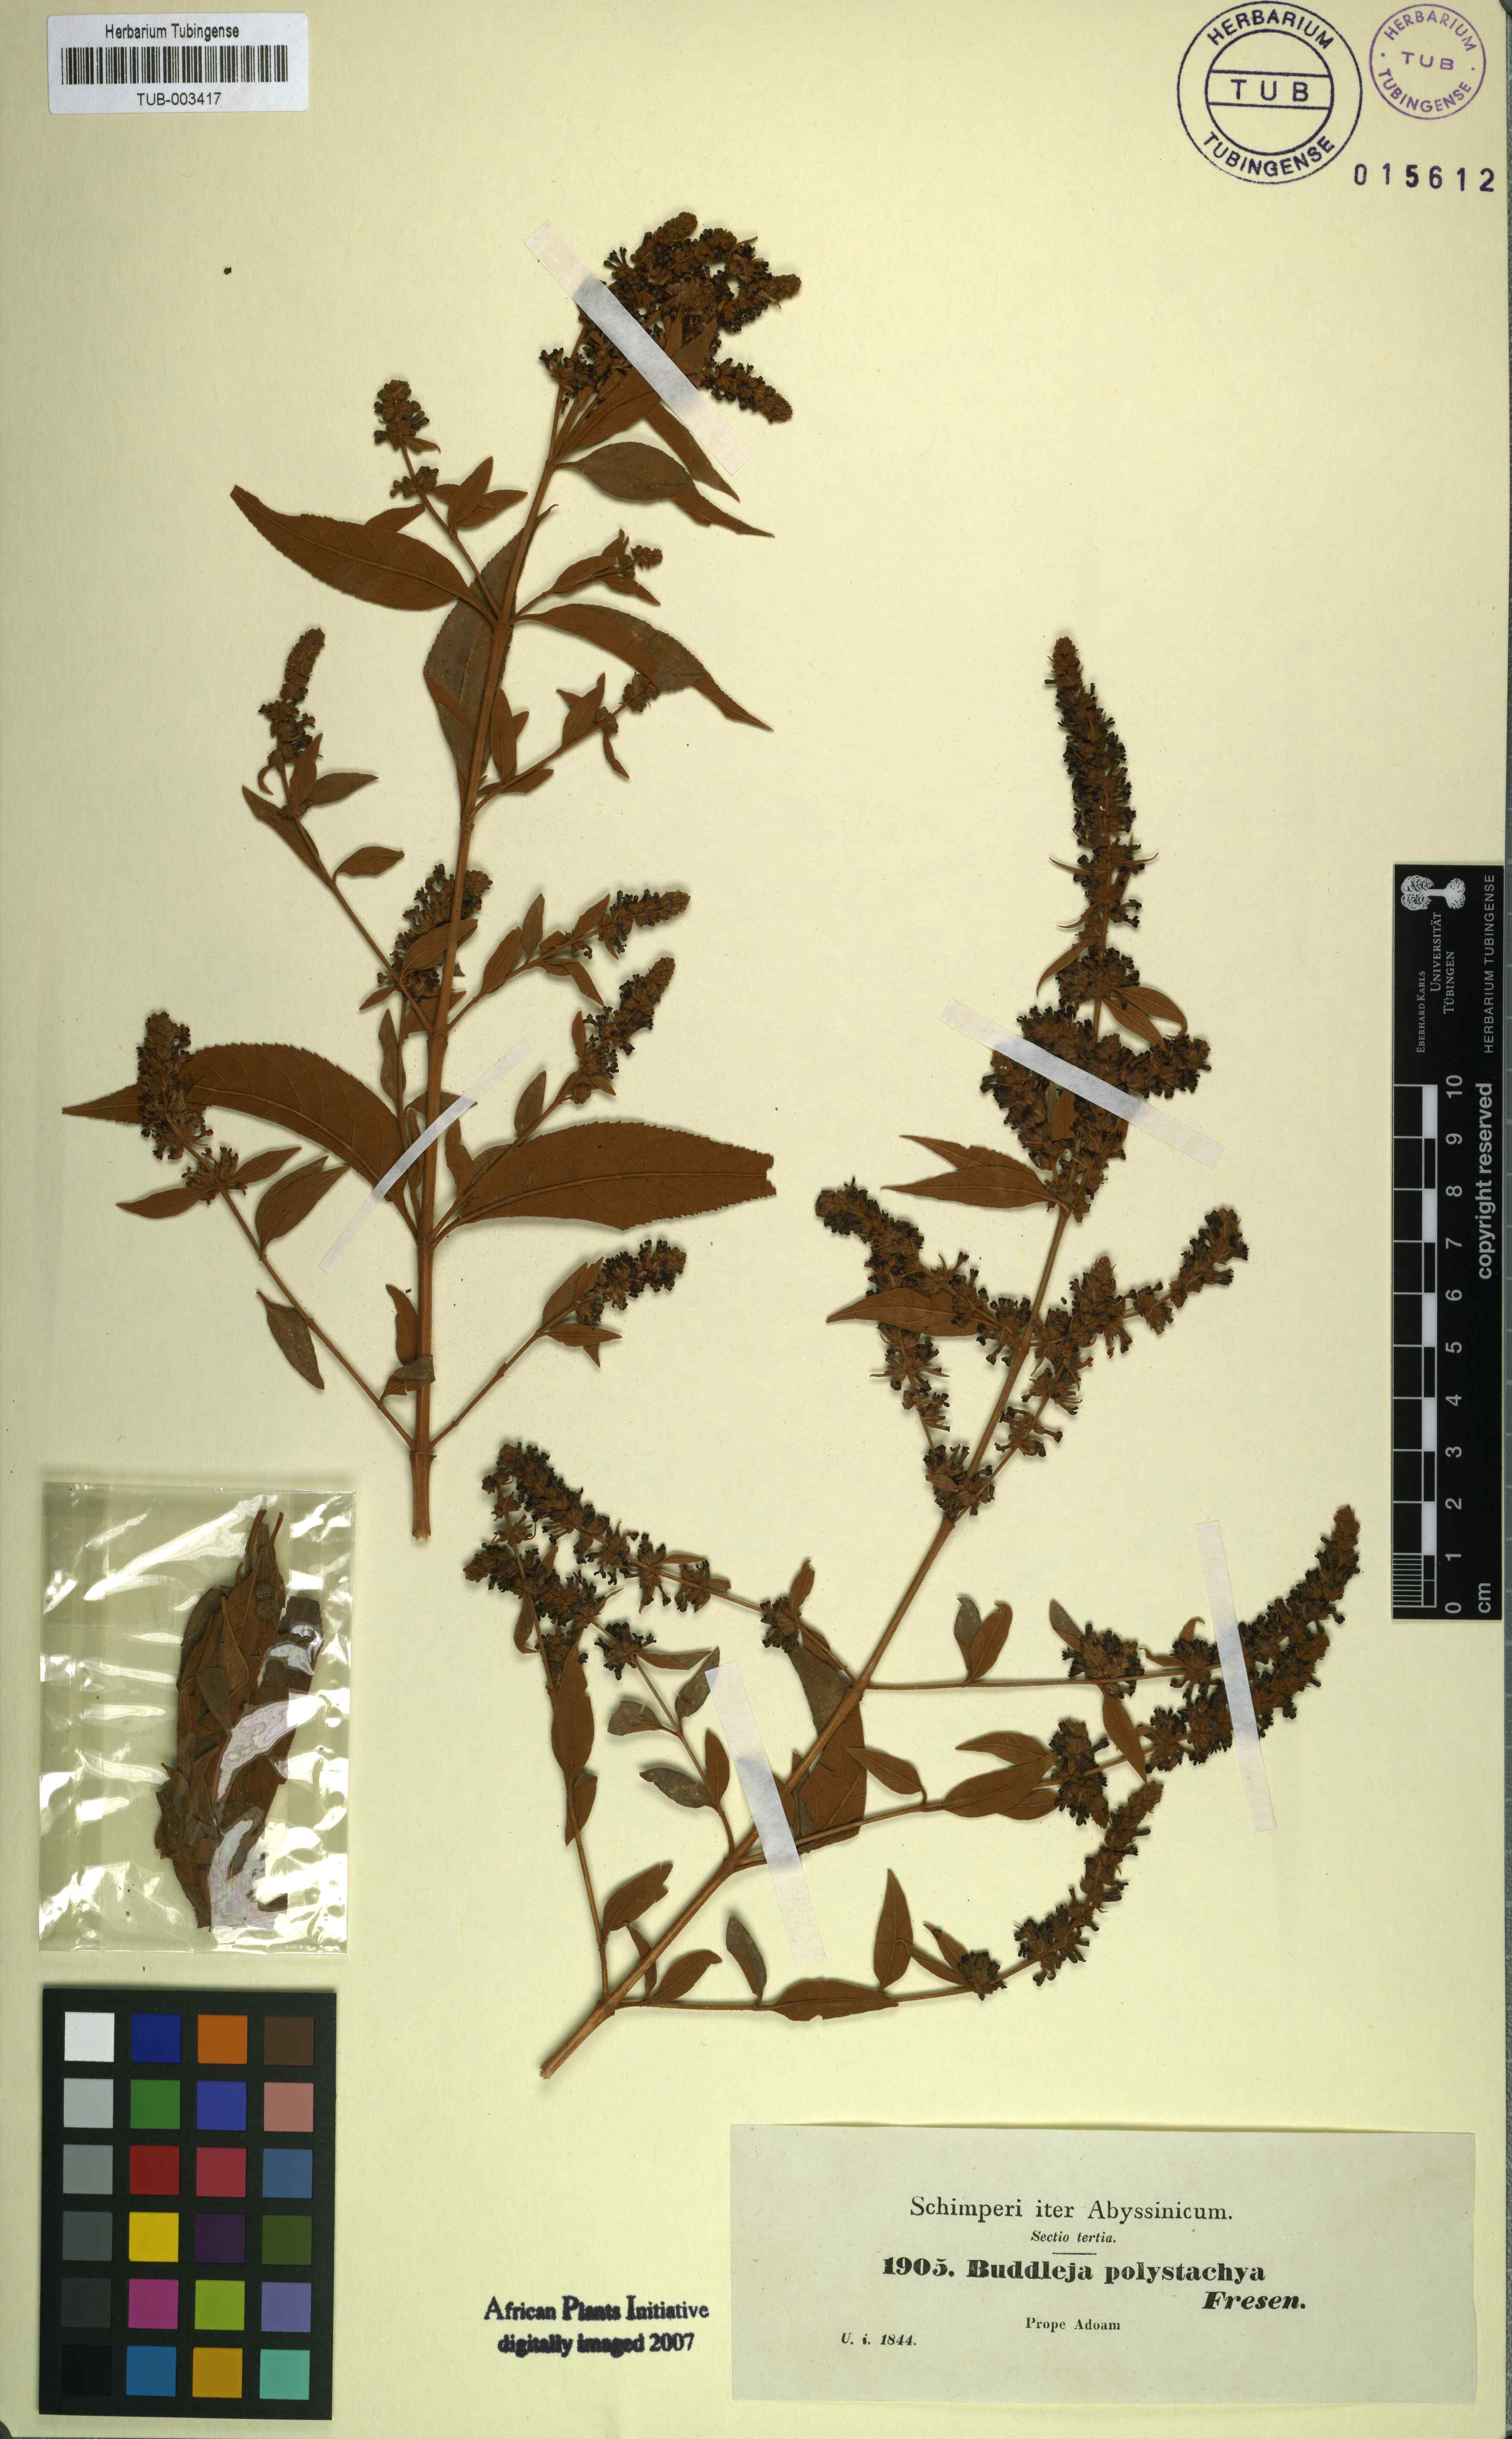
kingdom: Plantae
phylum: Tracheophyta
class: Magnoliopsida
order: Lamiales
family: Scrophulariaceae
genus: Buddleja
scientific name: Buddleja polystachya
